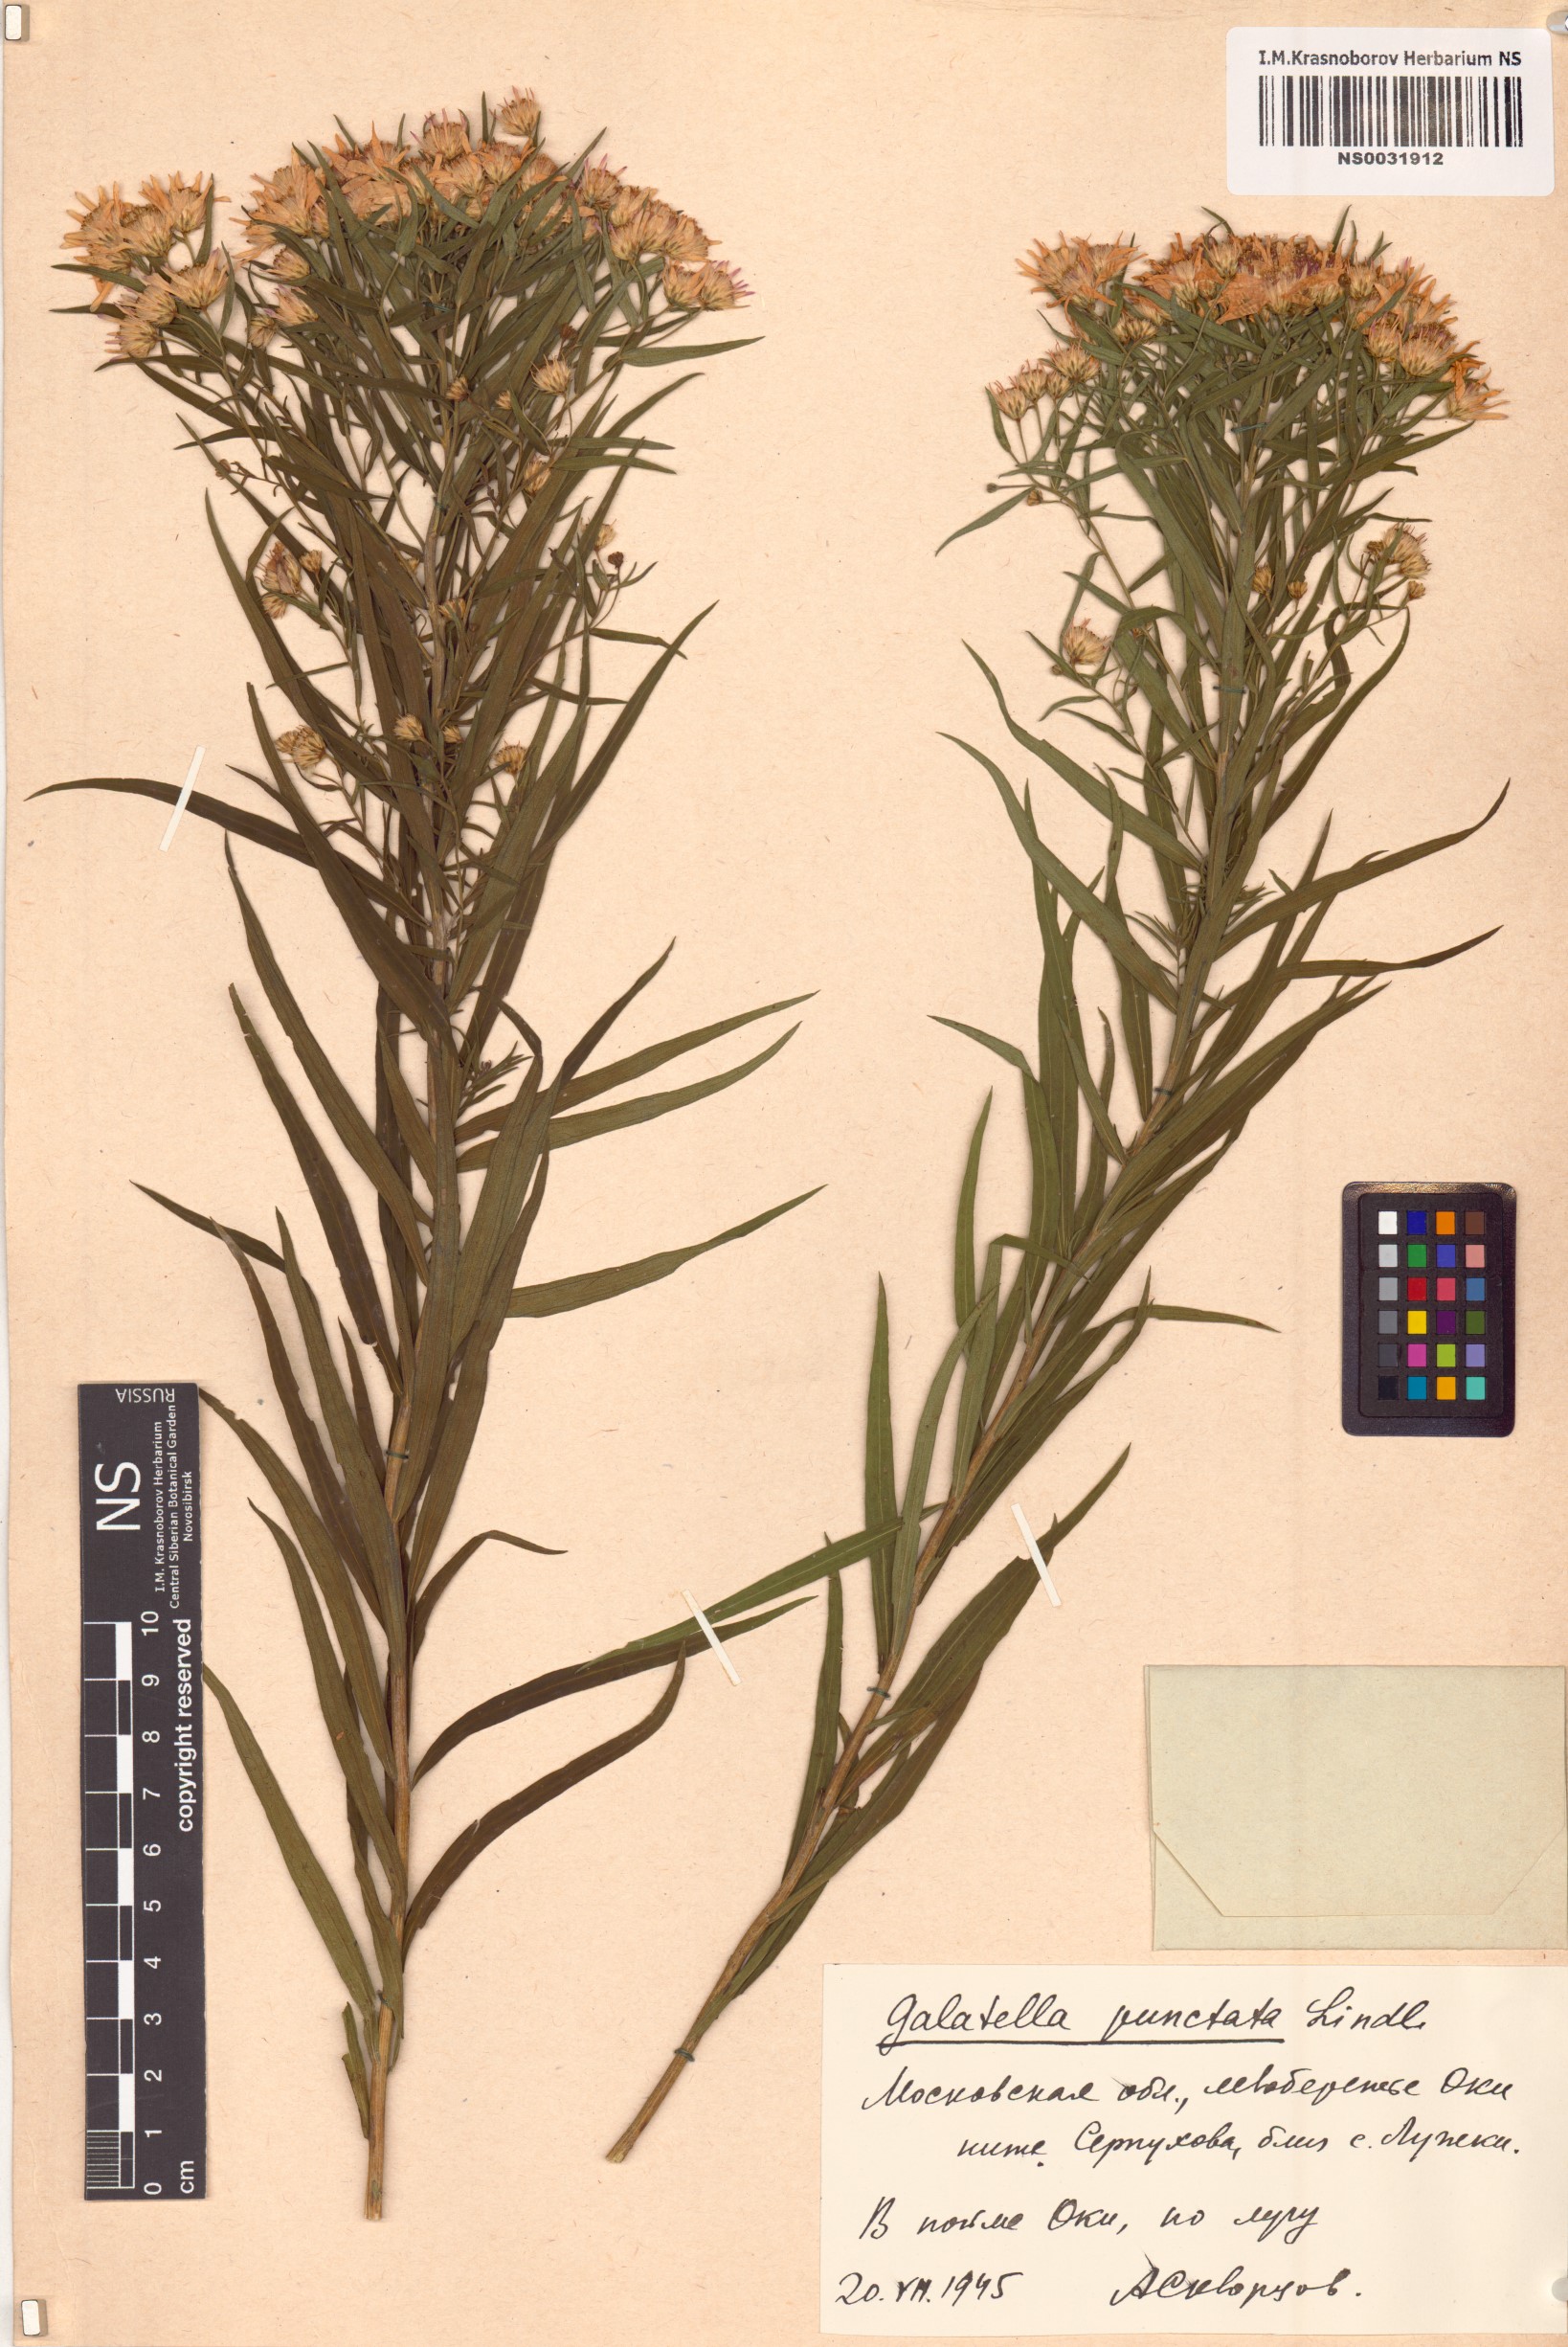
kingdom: Plantae
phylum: Tracheophyta
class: Magnoliopsida
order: Asterales
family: Asteraceae
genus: Galatella
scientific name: Galatella sedifolia
